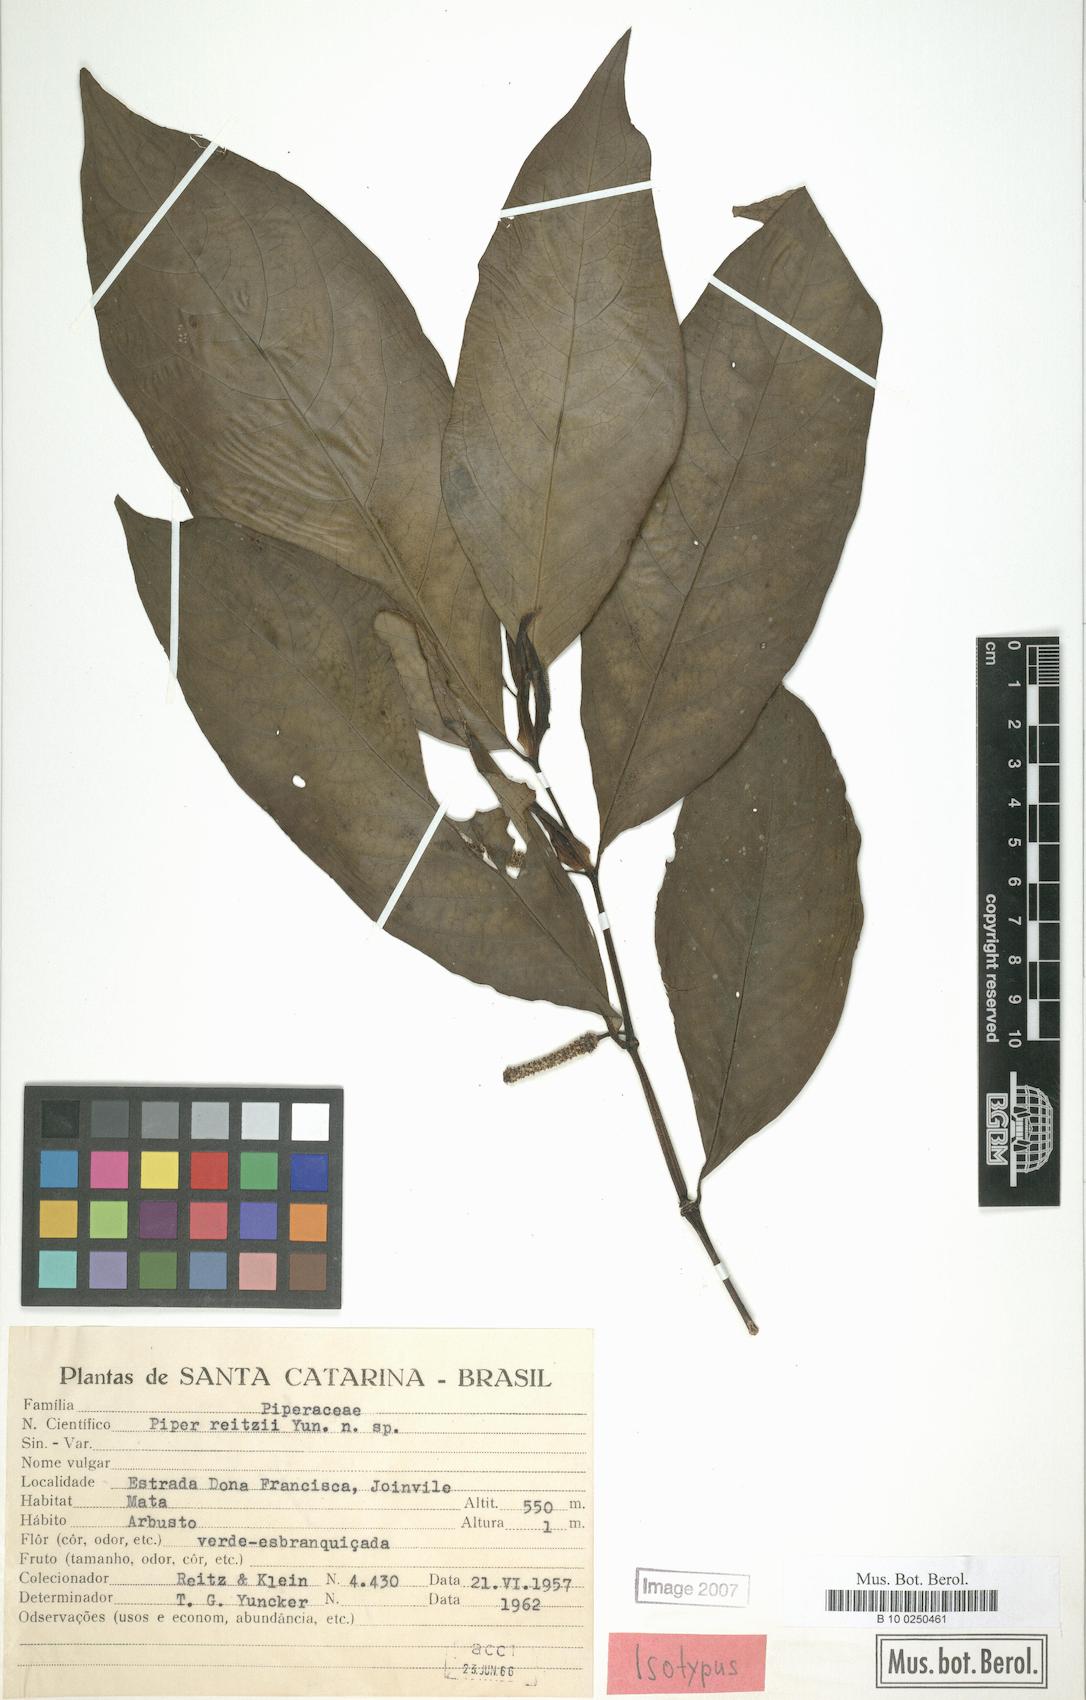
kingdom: Plantae
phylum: Tracheophyta
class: Magnoliopsida
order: Piperales
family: Piperaceae
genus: Piper
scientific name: Piper reitzii
